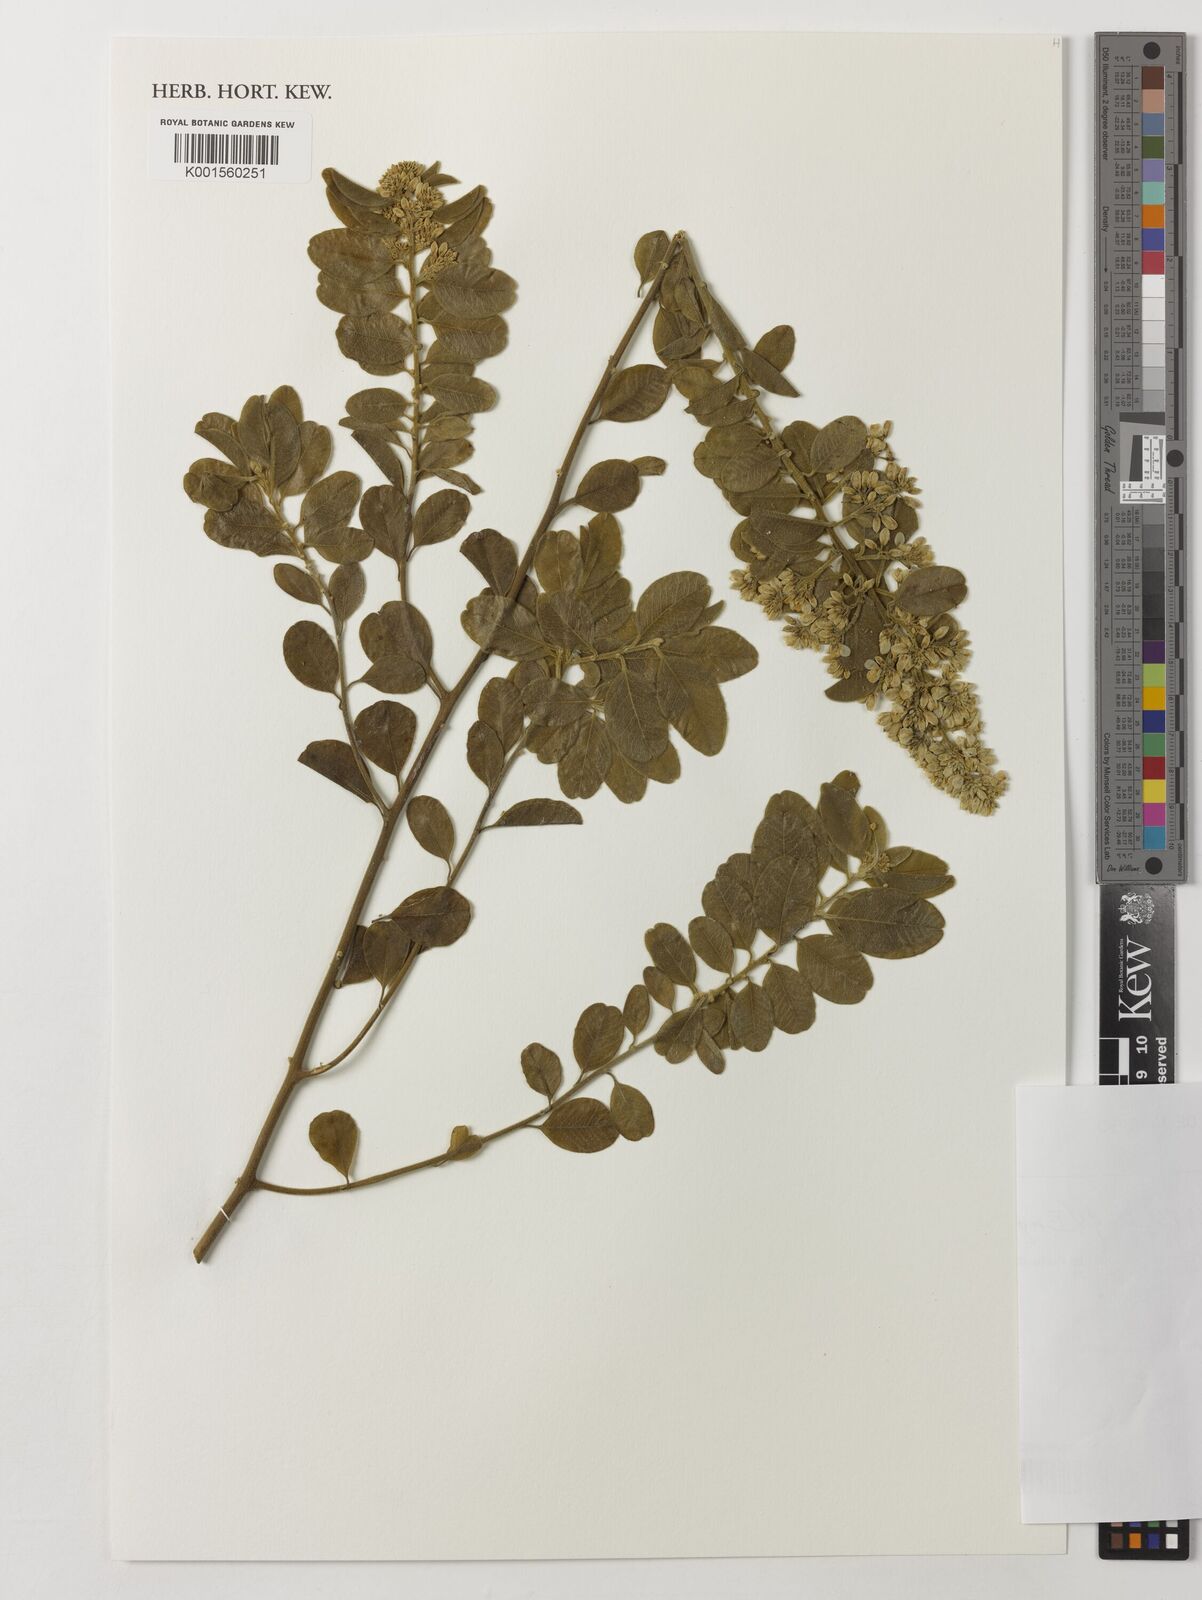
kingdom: Plantae
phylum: Tracheophyta
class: Magnoliopsida
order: Fabales
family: Polygalaceae
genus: Bredemeyera
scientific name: Bredemeyera brevifolia
